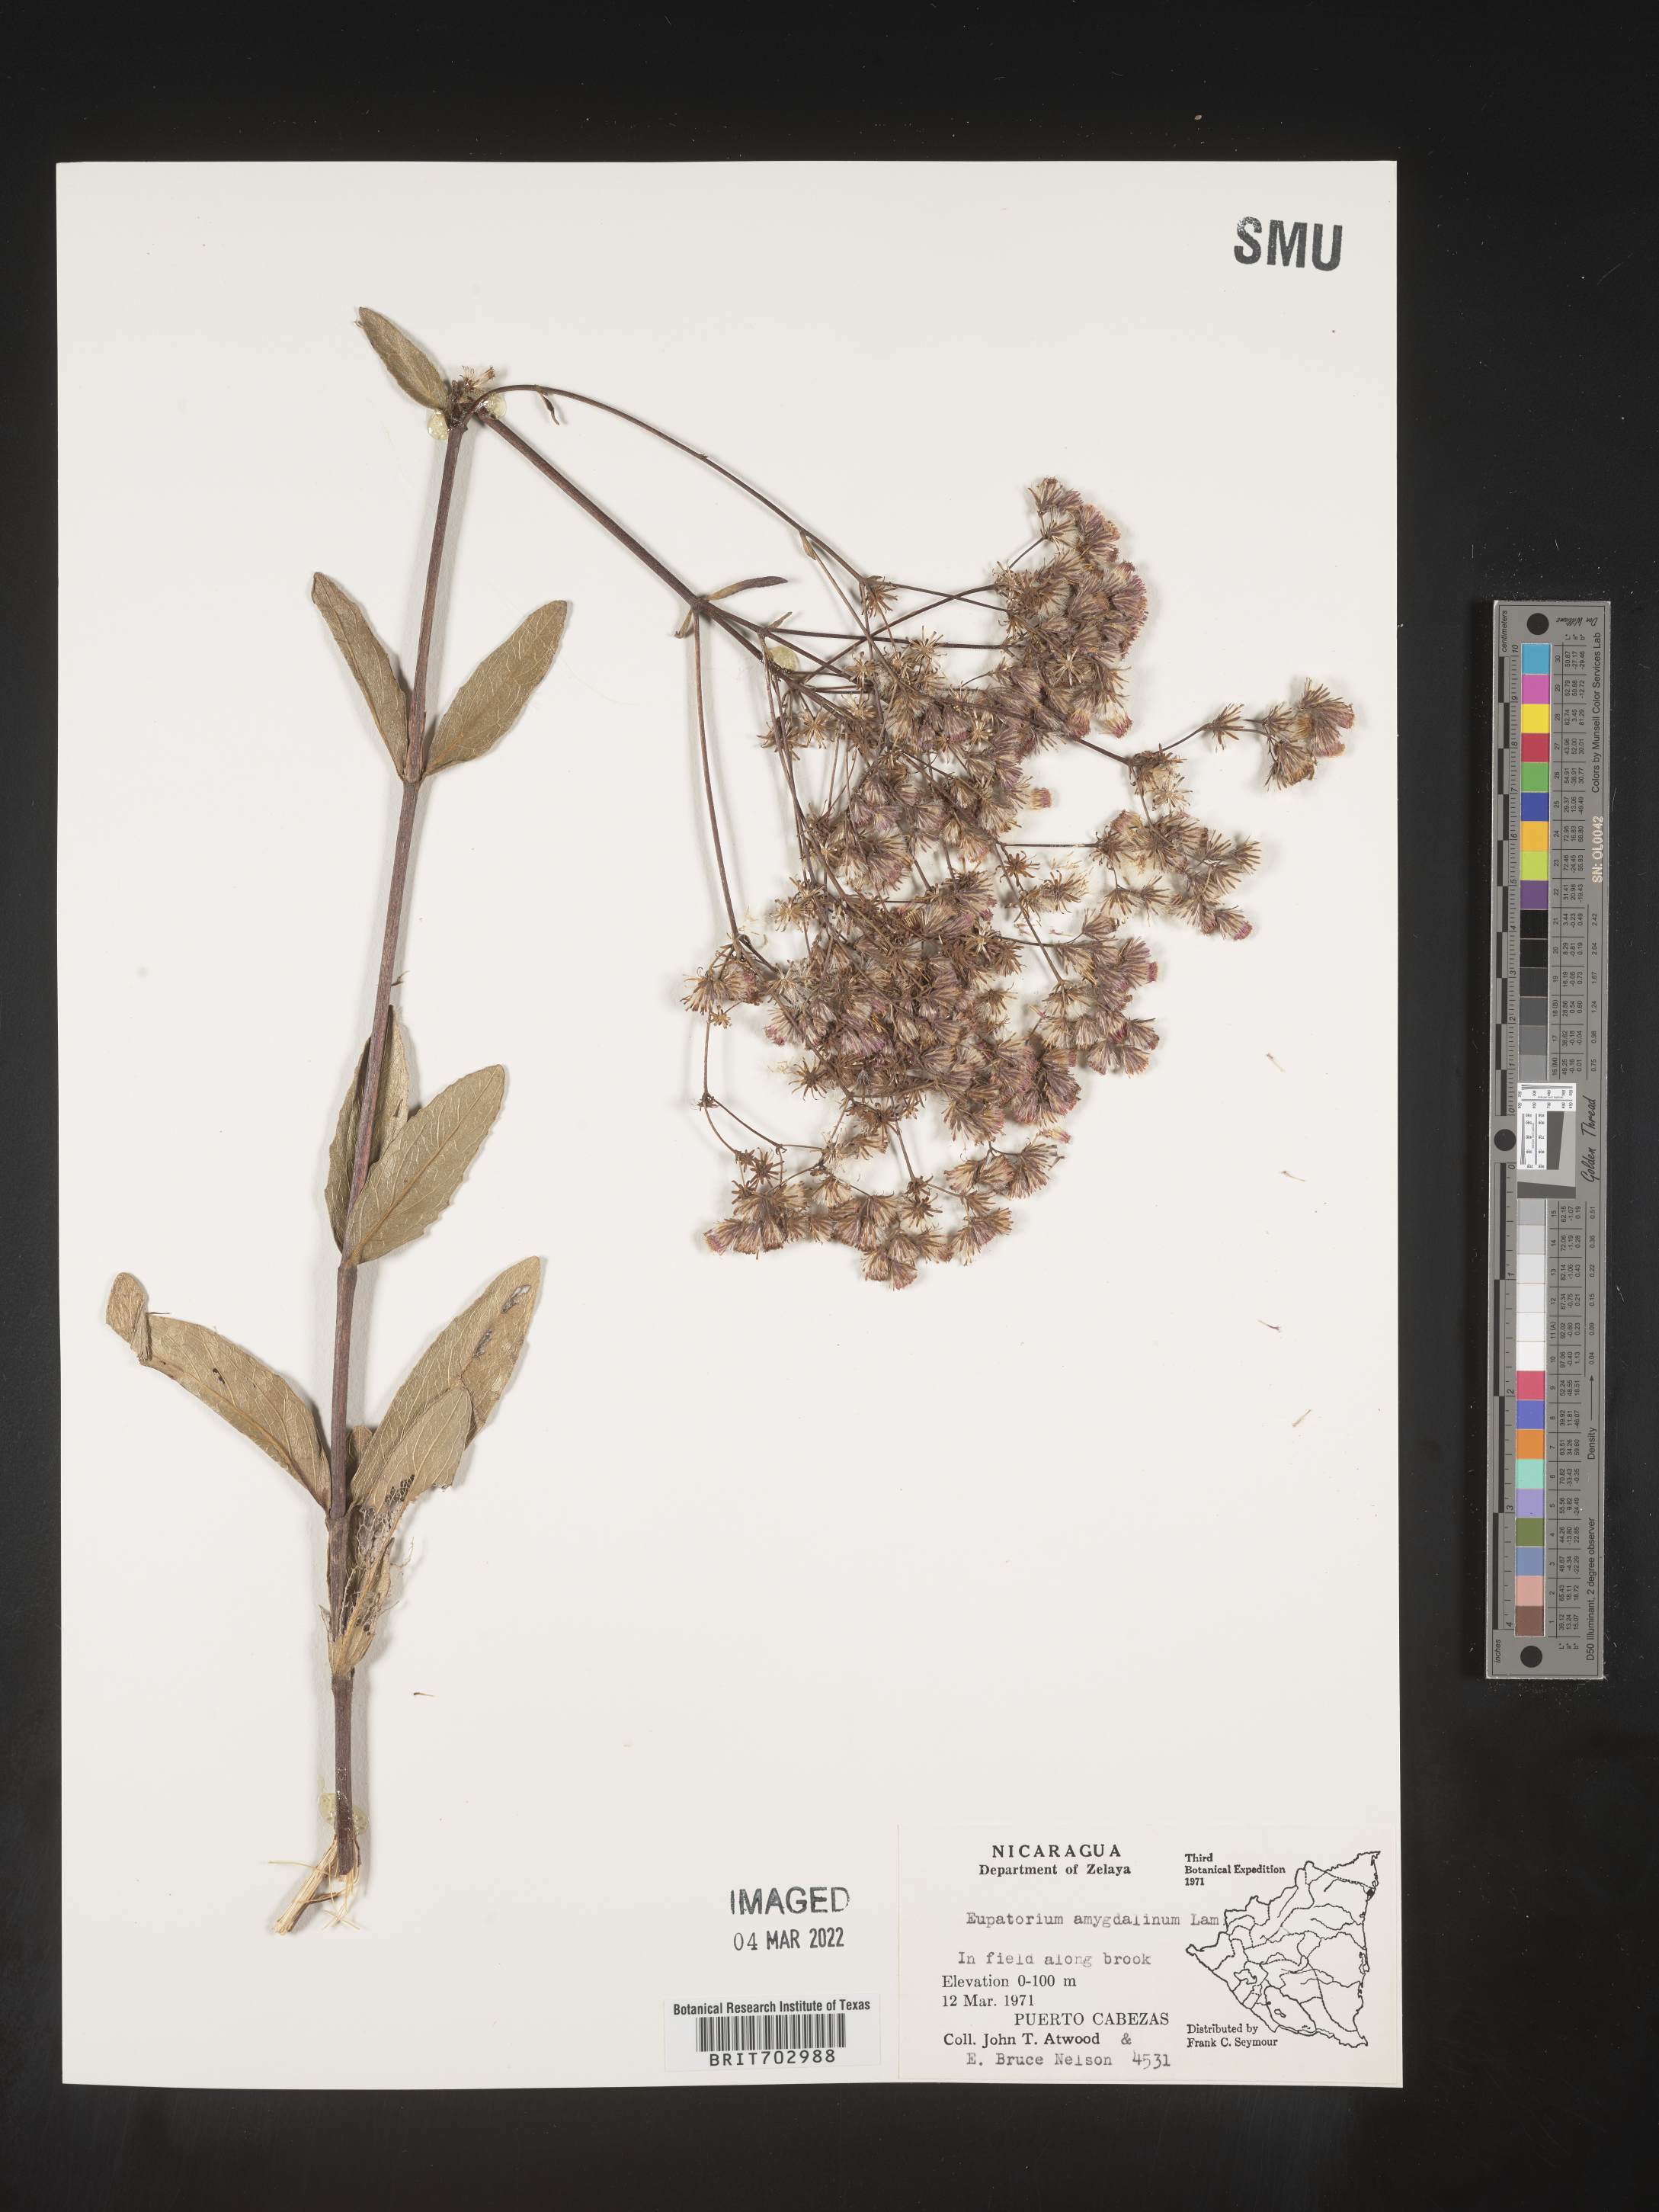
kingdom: Plantae
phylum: Tracheophyta
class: Magnoliopsida
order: Asterales
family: Asteraceae
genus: Eupatorium
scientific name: Eupatorium
